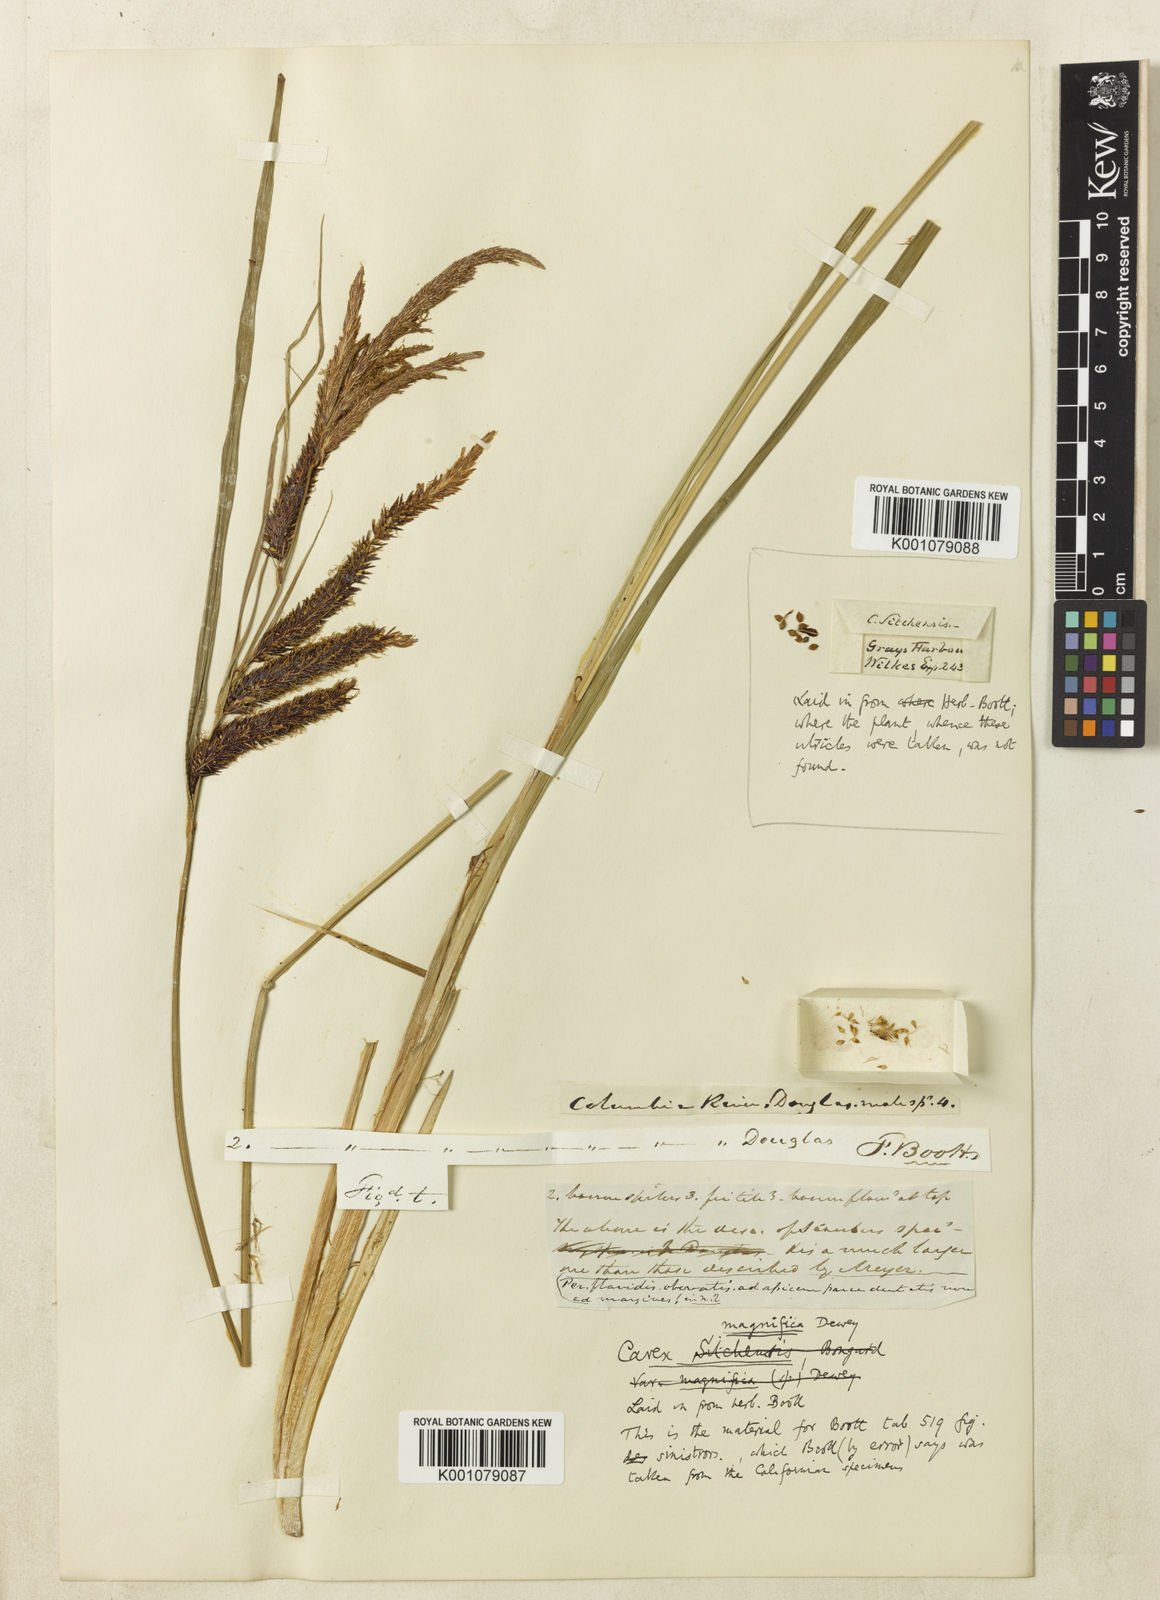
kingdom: Plantae
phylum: Tracheophyta
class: Liliopsida
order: Poales
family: Cyperaceae
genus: Carex
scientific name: Carex obnupta
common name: Slough sedge
